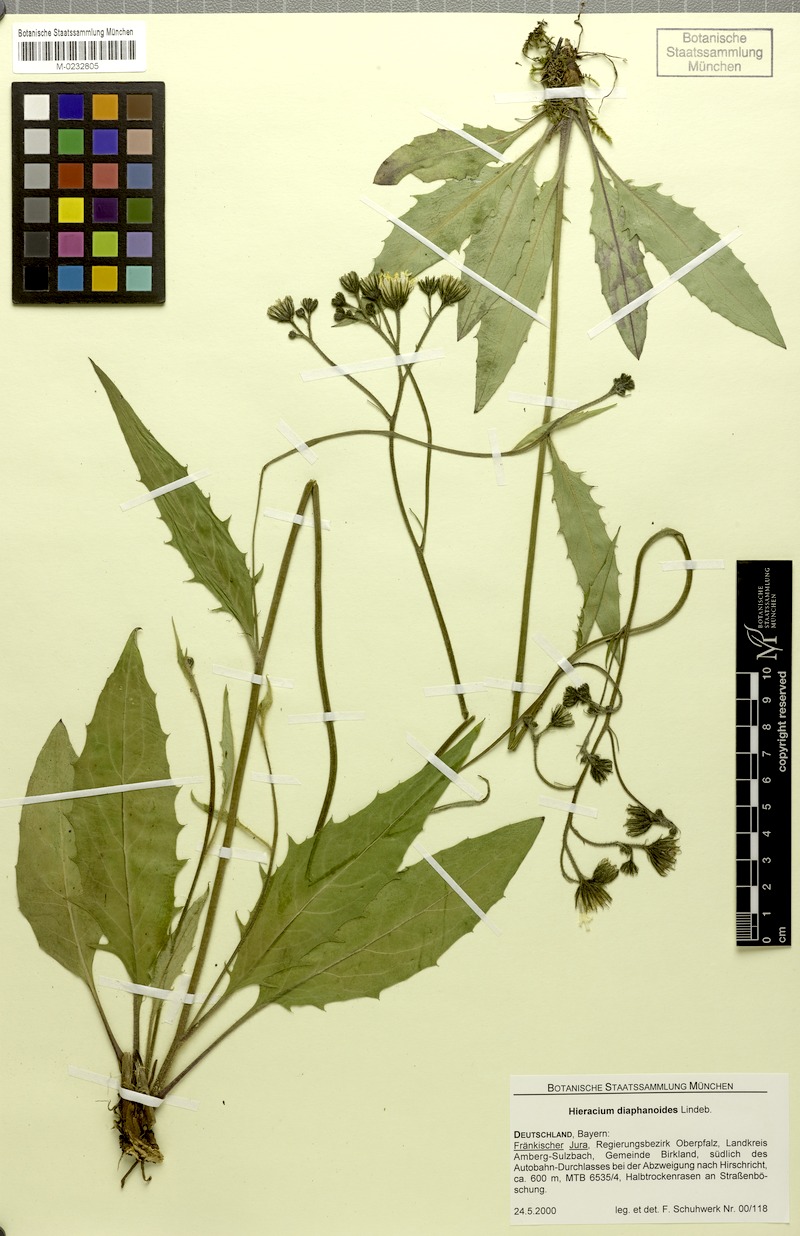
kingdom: Plantae
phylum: Tracheophyta
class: Magnoliopsida
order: Asterales
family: Asteraceae
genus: Hieracium
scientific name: Hieracium diaphanoides
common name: Fine-bracted hawkweed
